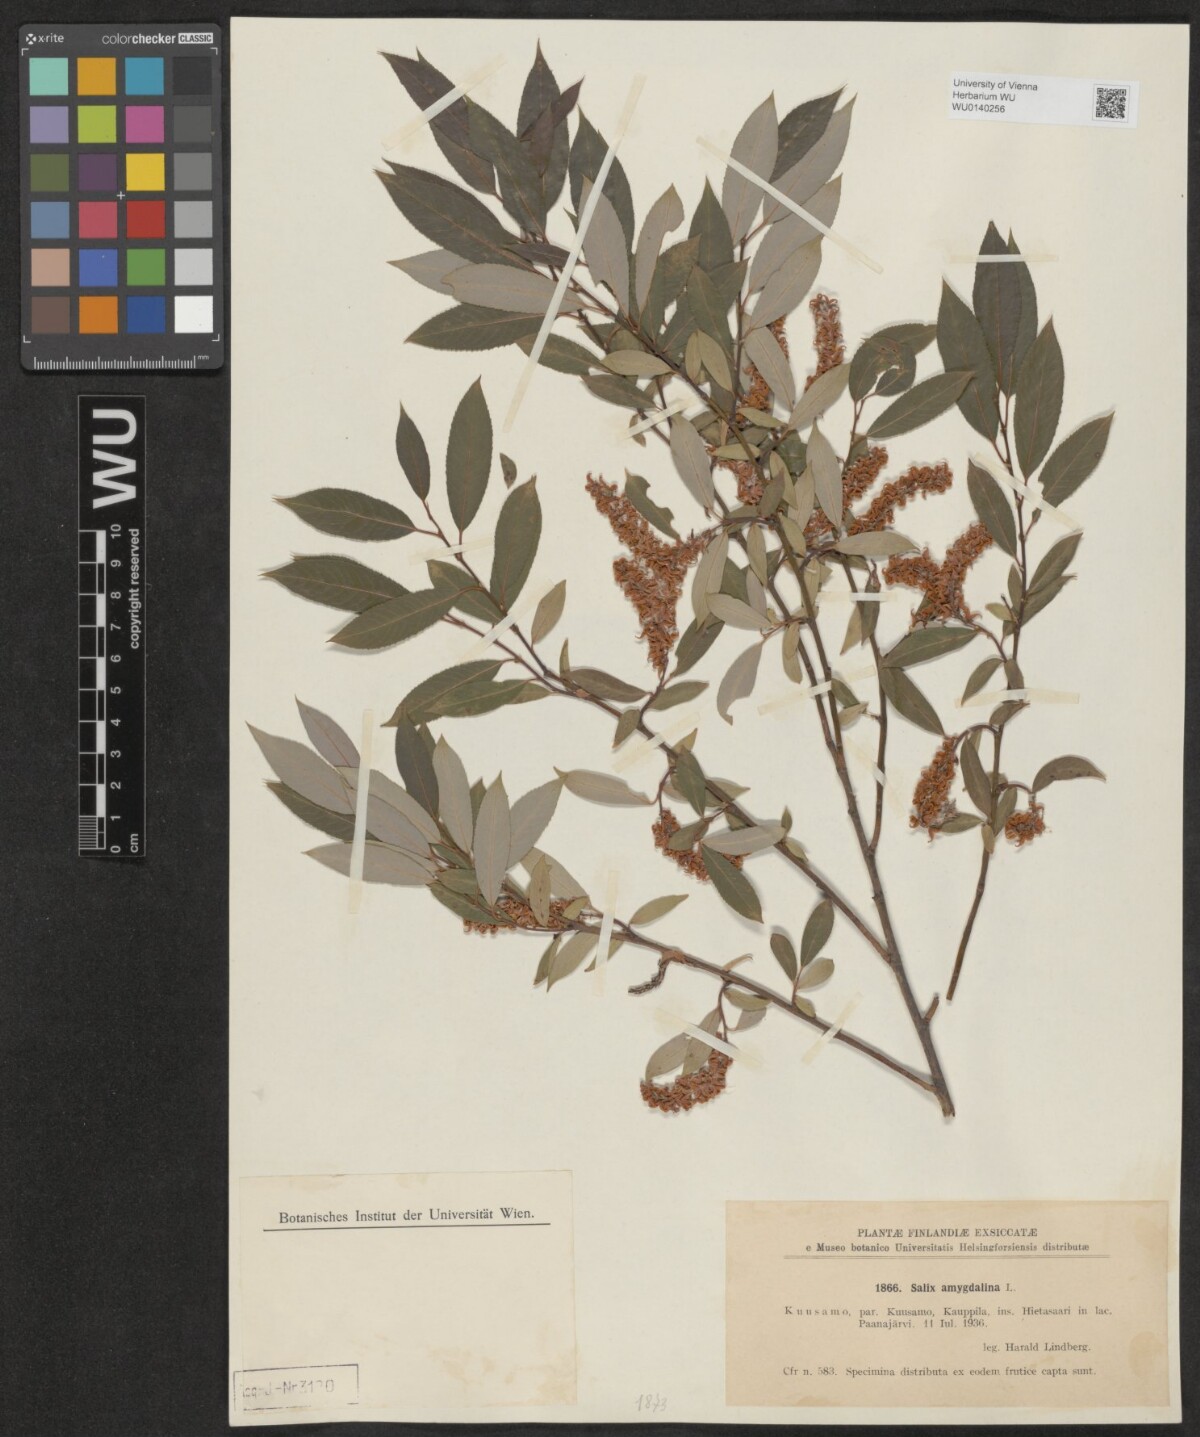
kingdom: Plantae
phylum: Tracheophyta
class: Magnoliopsida
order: Malpighiales
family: Salicaceae
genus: Salix
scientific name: Salix triandra
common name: Almond willow
